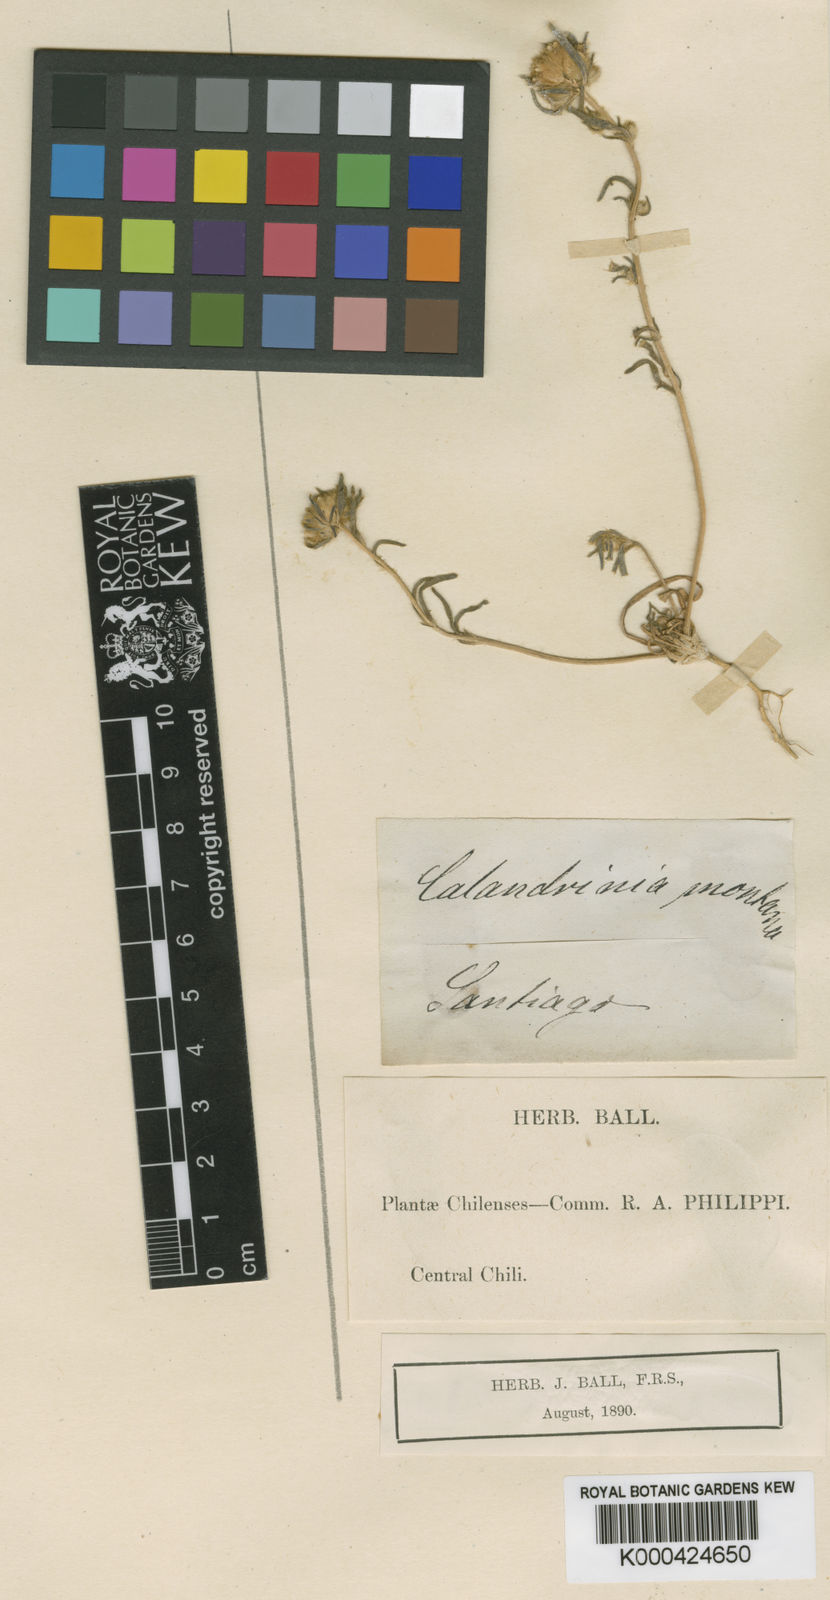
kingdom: Plantae
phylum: Tracheophyta
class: Magnoliopsida
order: Caryophyllales
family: Montiaceae
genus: Montiopsis
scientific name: Montiopsis capitata
